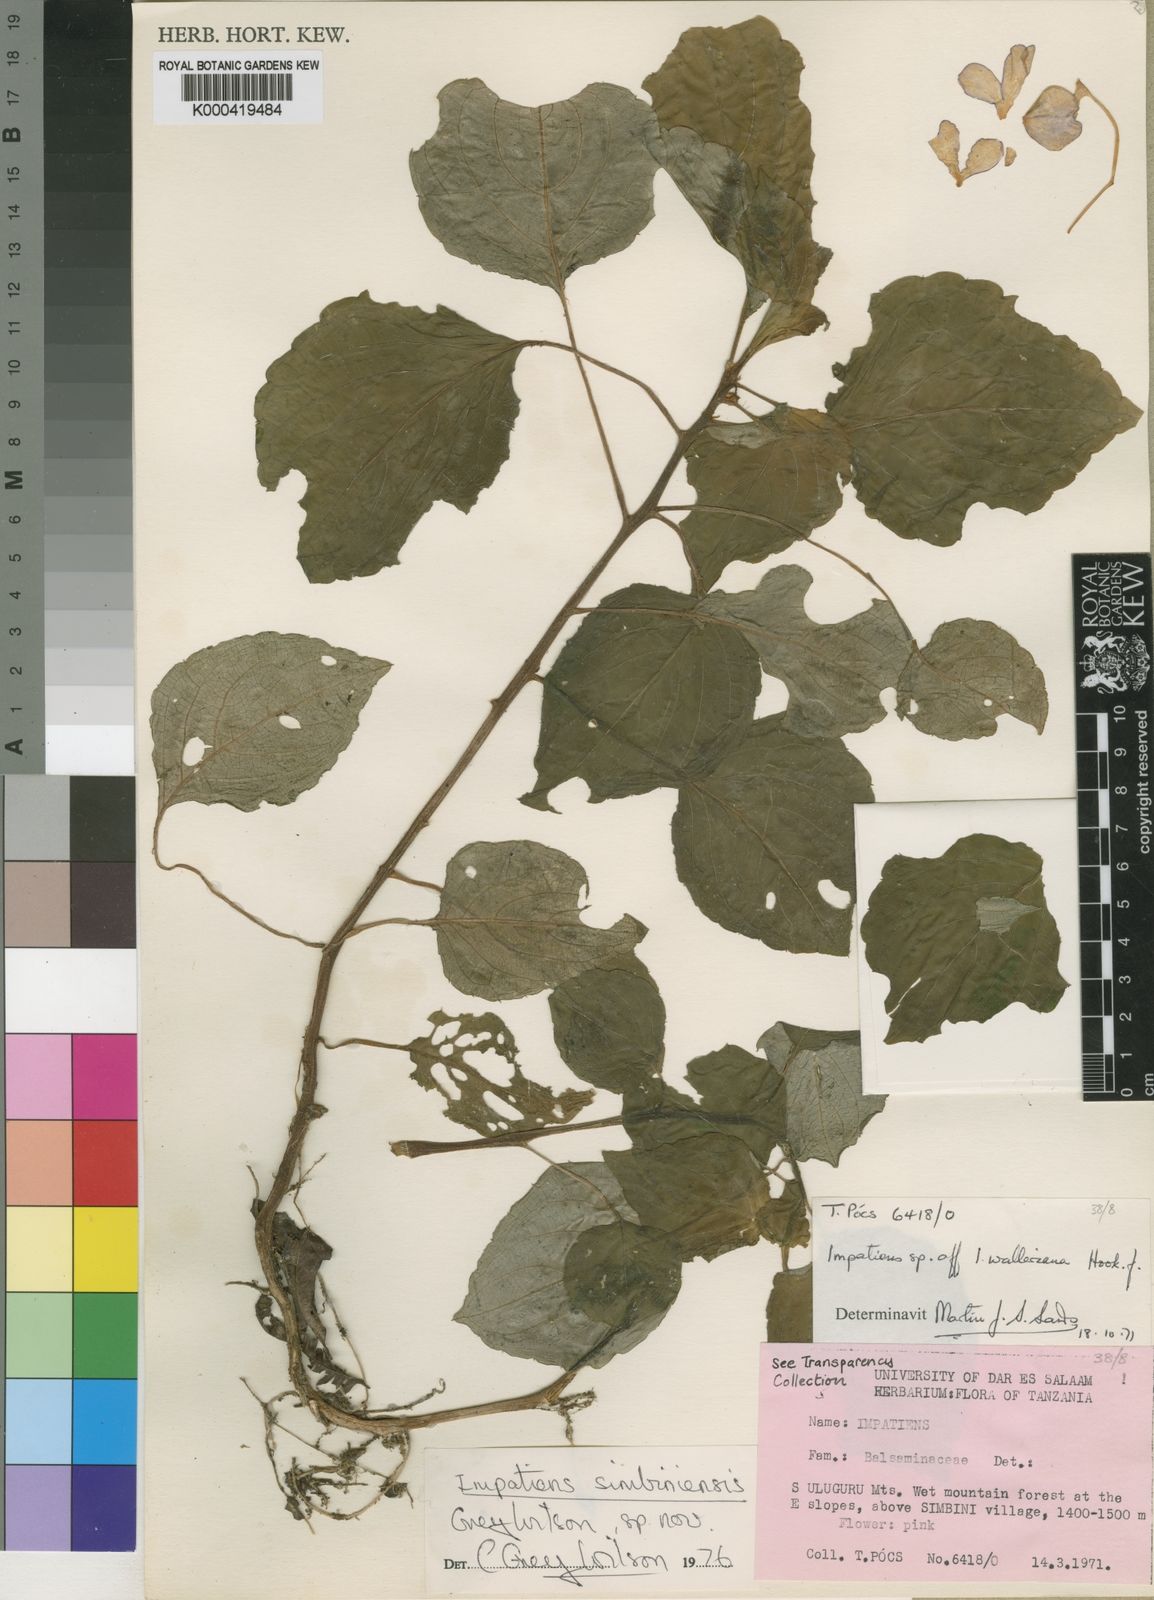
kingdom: Plantae
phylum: Tracheophyta
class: Magnoliopsida
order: Ericales
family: Balsaminaceae
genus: Impatiens
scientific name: Impatiens simbiniensis
